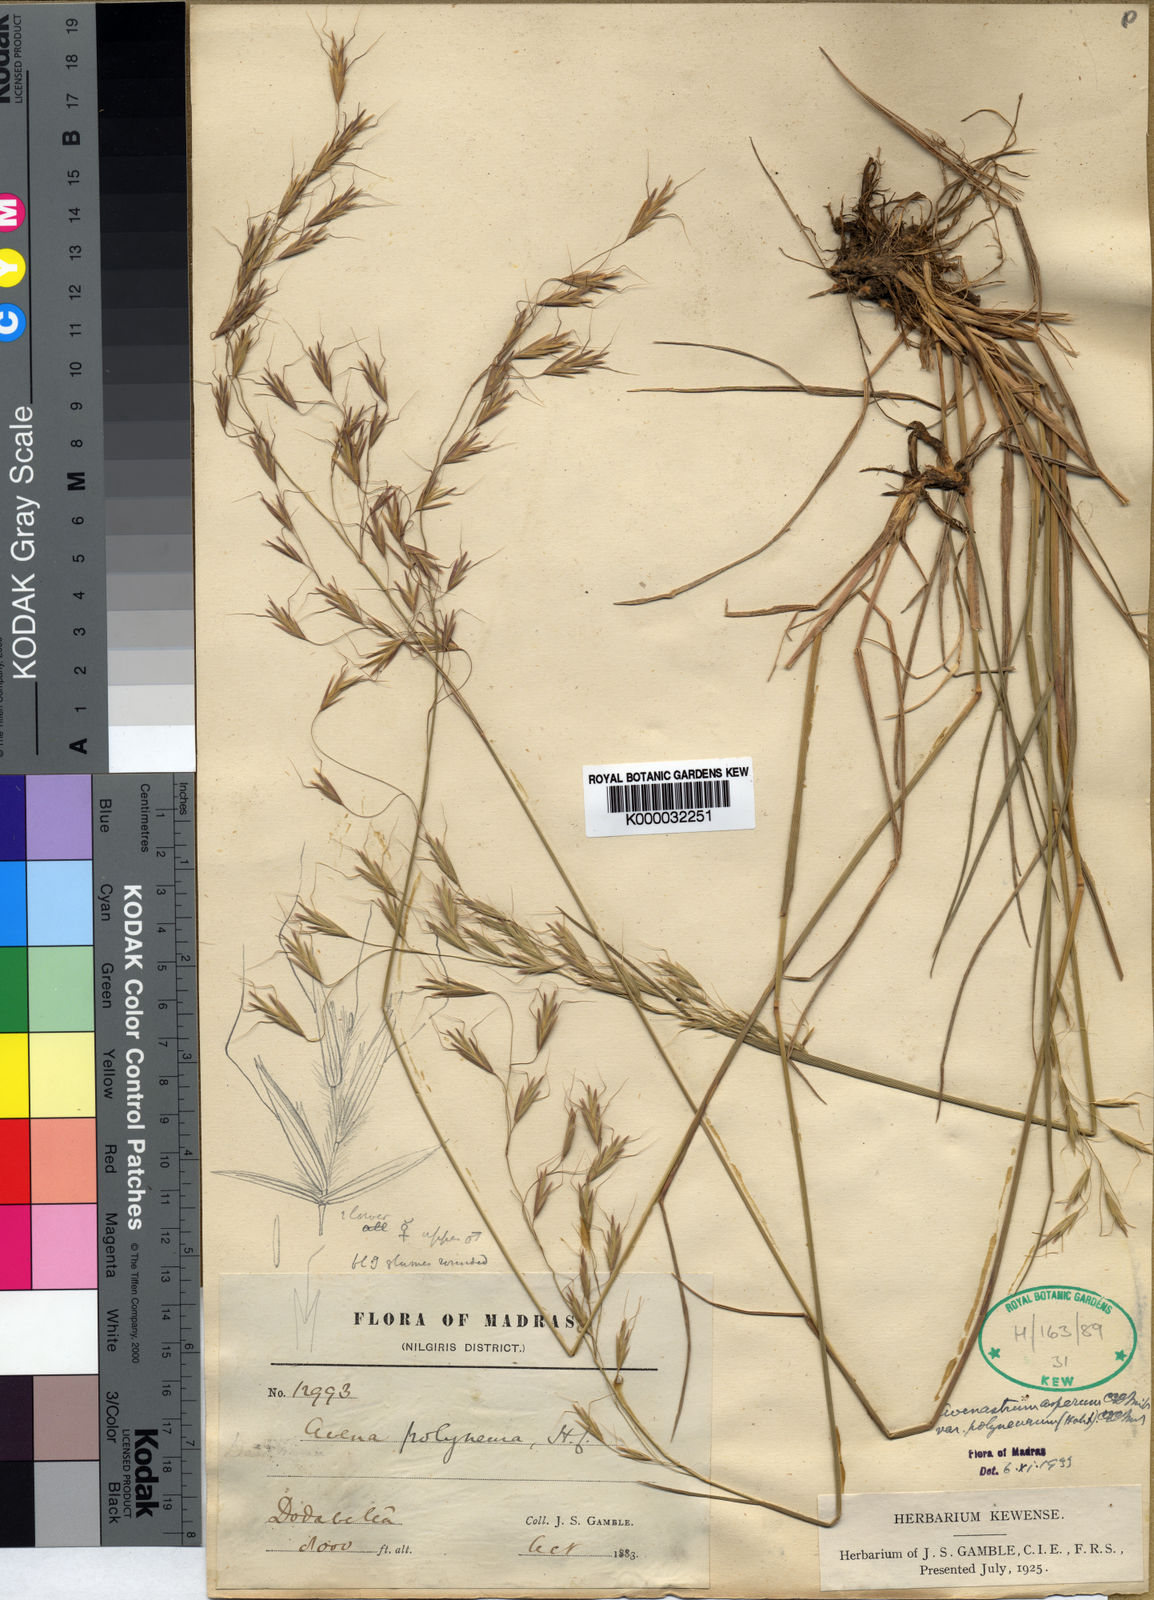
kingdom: Plantae
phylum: Tracheophyta
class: Liliopsida
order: Poales
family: Poaceae
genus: Helictotrichon
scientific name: Helictotrichon polyneurum
